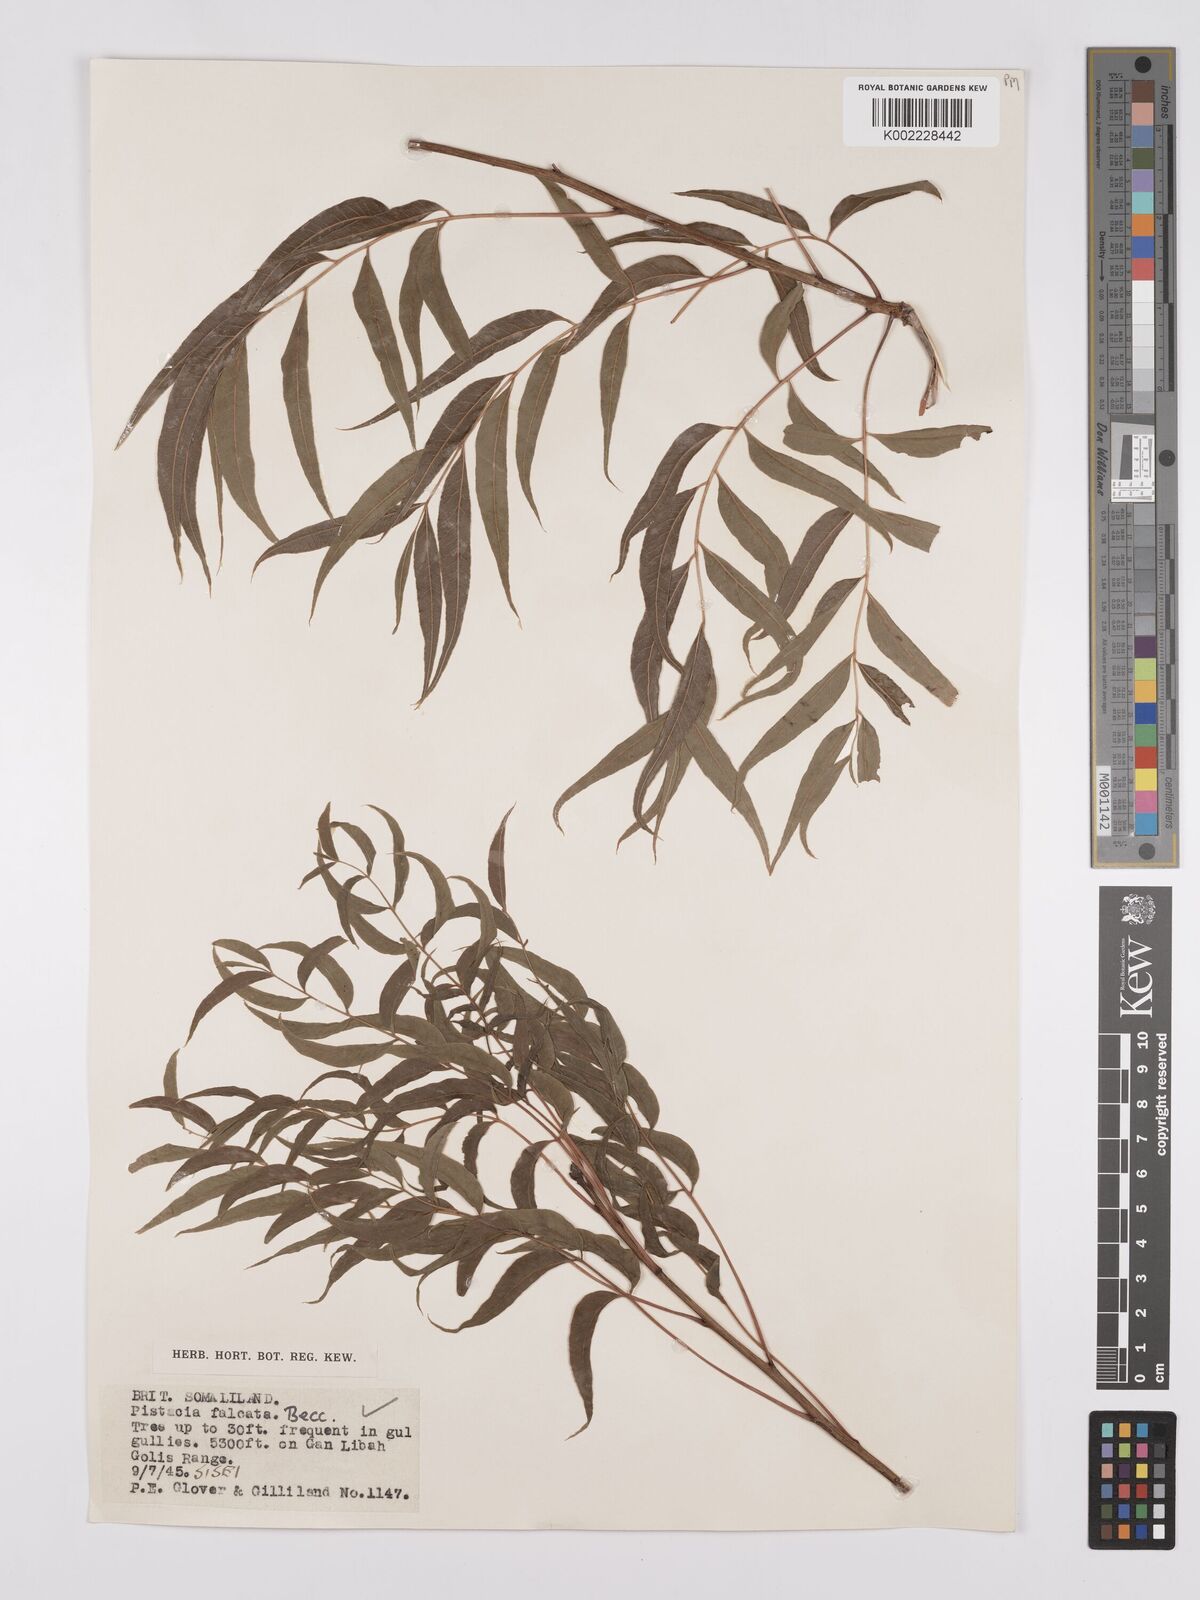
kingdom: Plantae
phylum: Tracheophyta
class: Magnoliopsida
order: Sapindales
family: Anacardiaceae
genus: Pistacia
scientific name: Pistacia falcata
